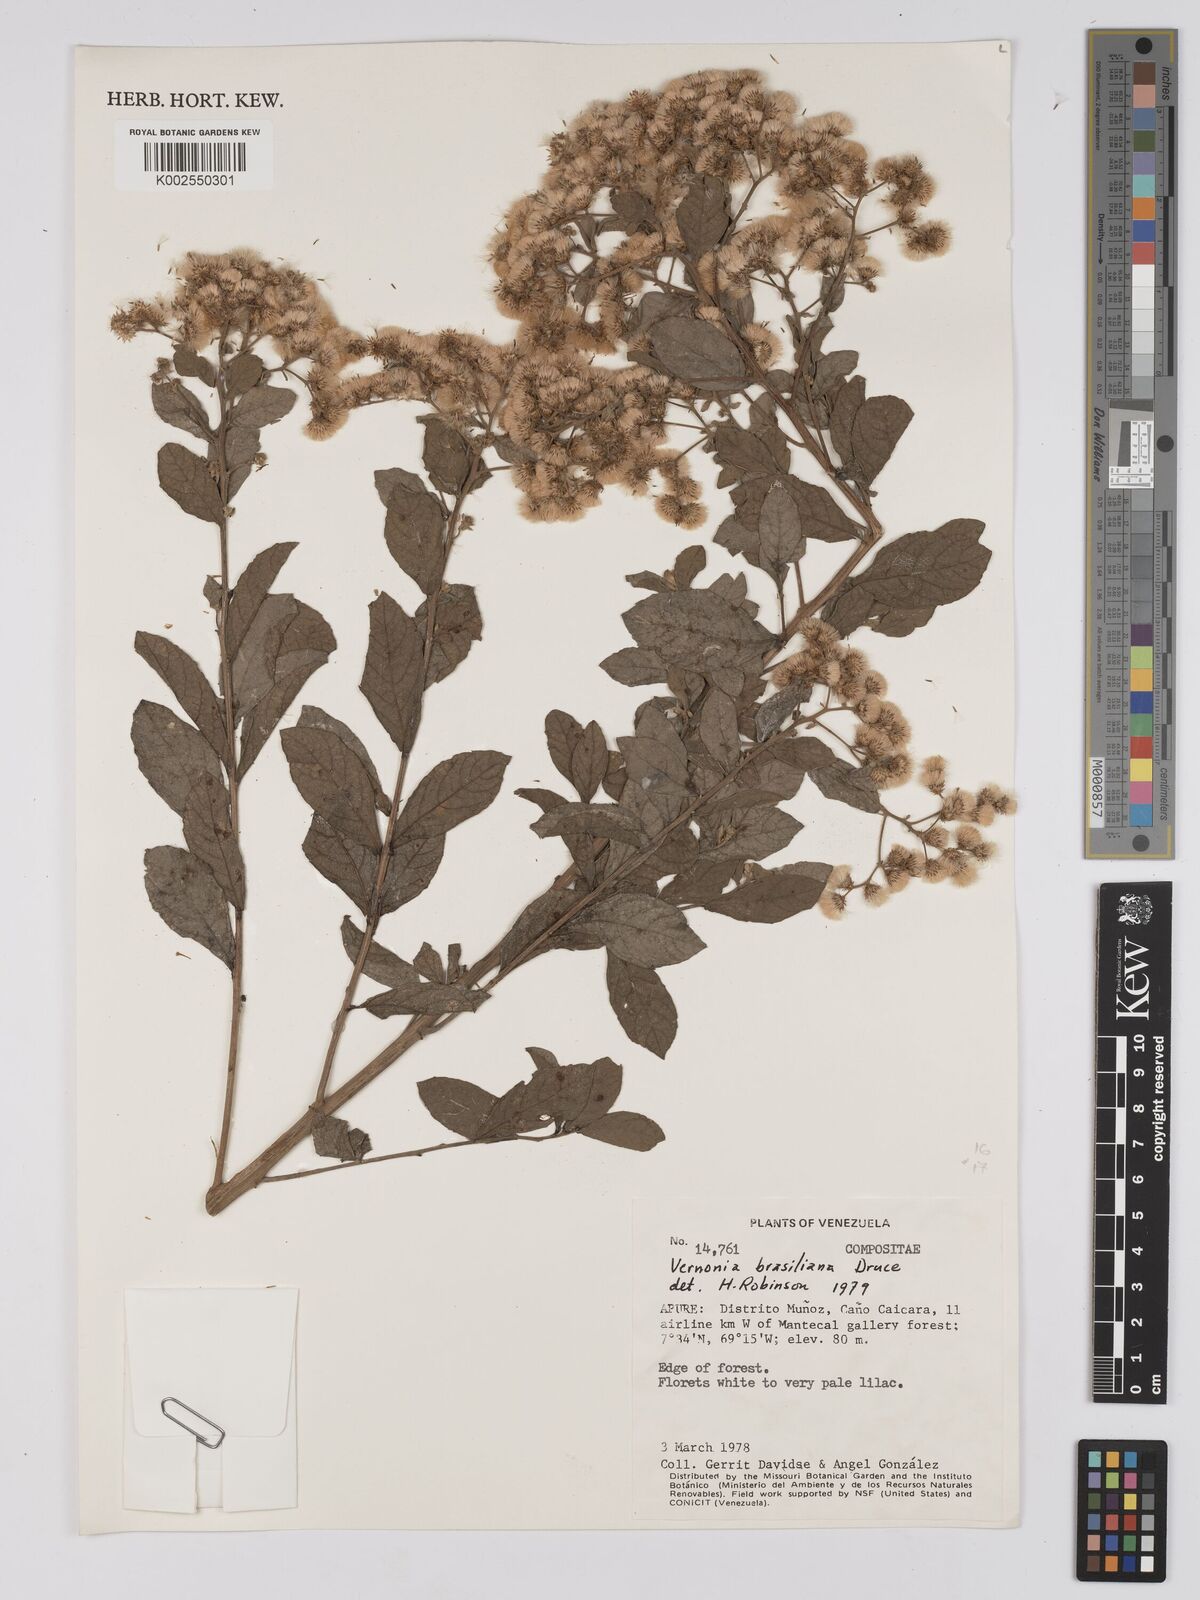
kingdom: Plantae
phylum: Tracheophyta
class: Magnoliopsida
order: Asterales
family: Asteraceae
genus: Vernonanthura
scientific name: Vernonanthura brasiliana
